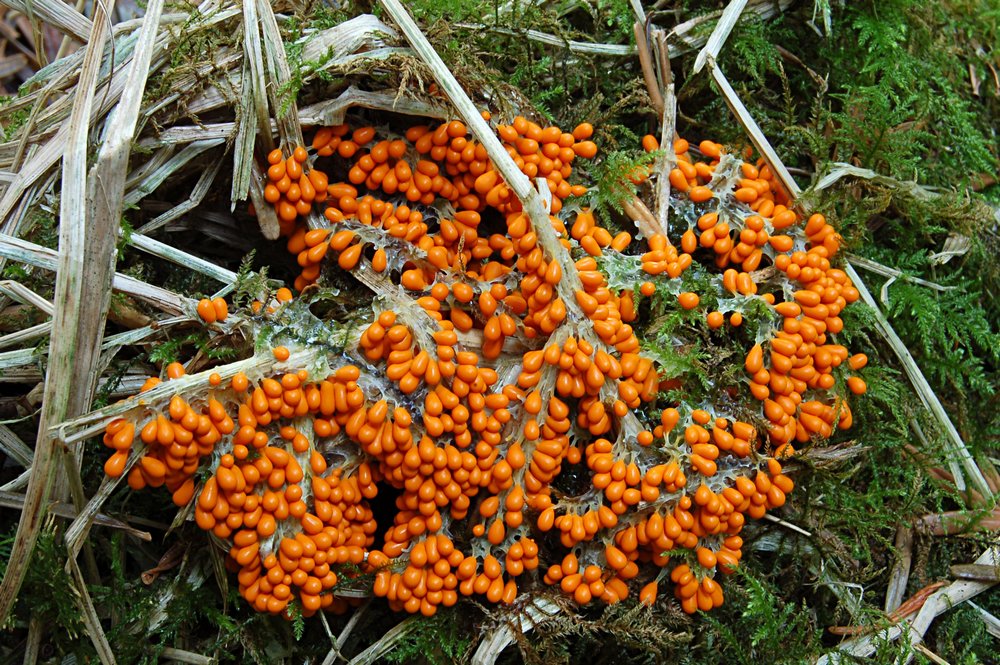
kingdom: Protozoa
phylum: Mycetozoa
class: Myxomycetes
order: Physarales
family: Physaraceae
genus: Leocarpus
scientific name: Leocarpus fragilis
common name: poleret glatfrø
